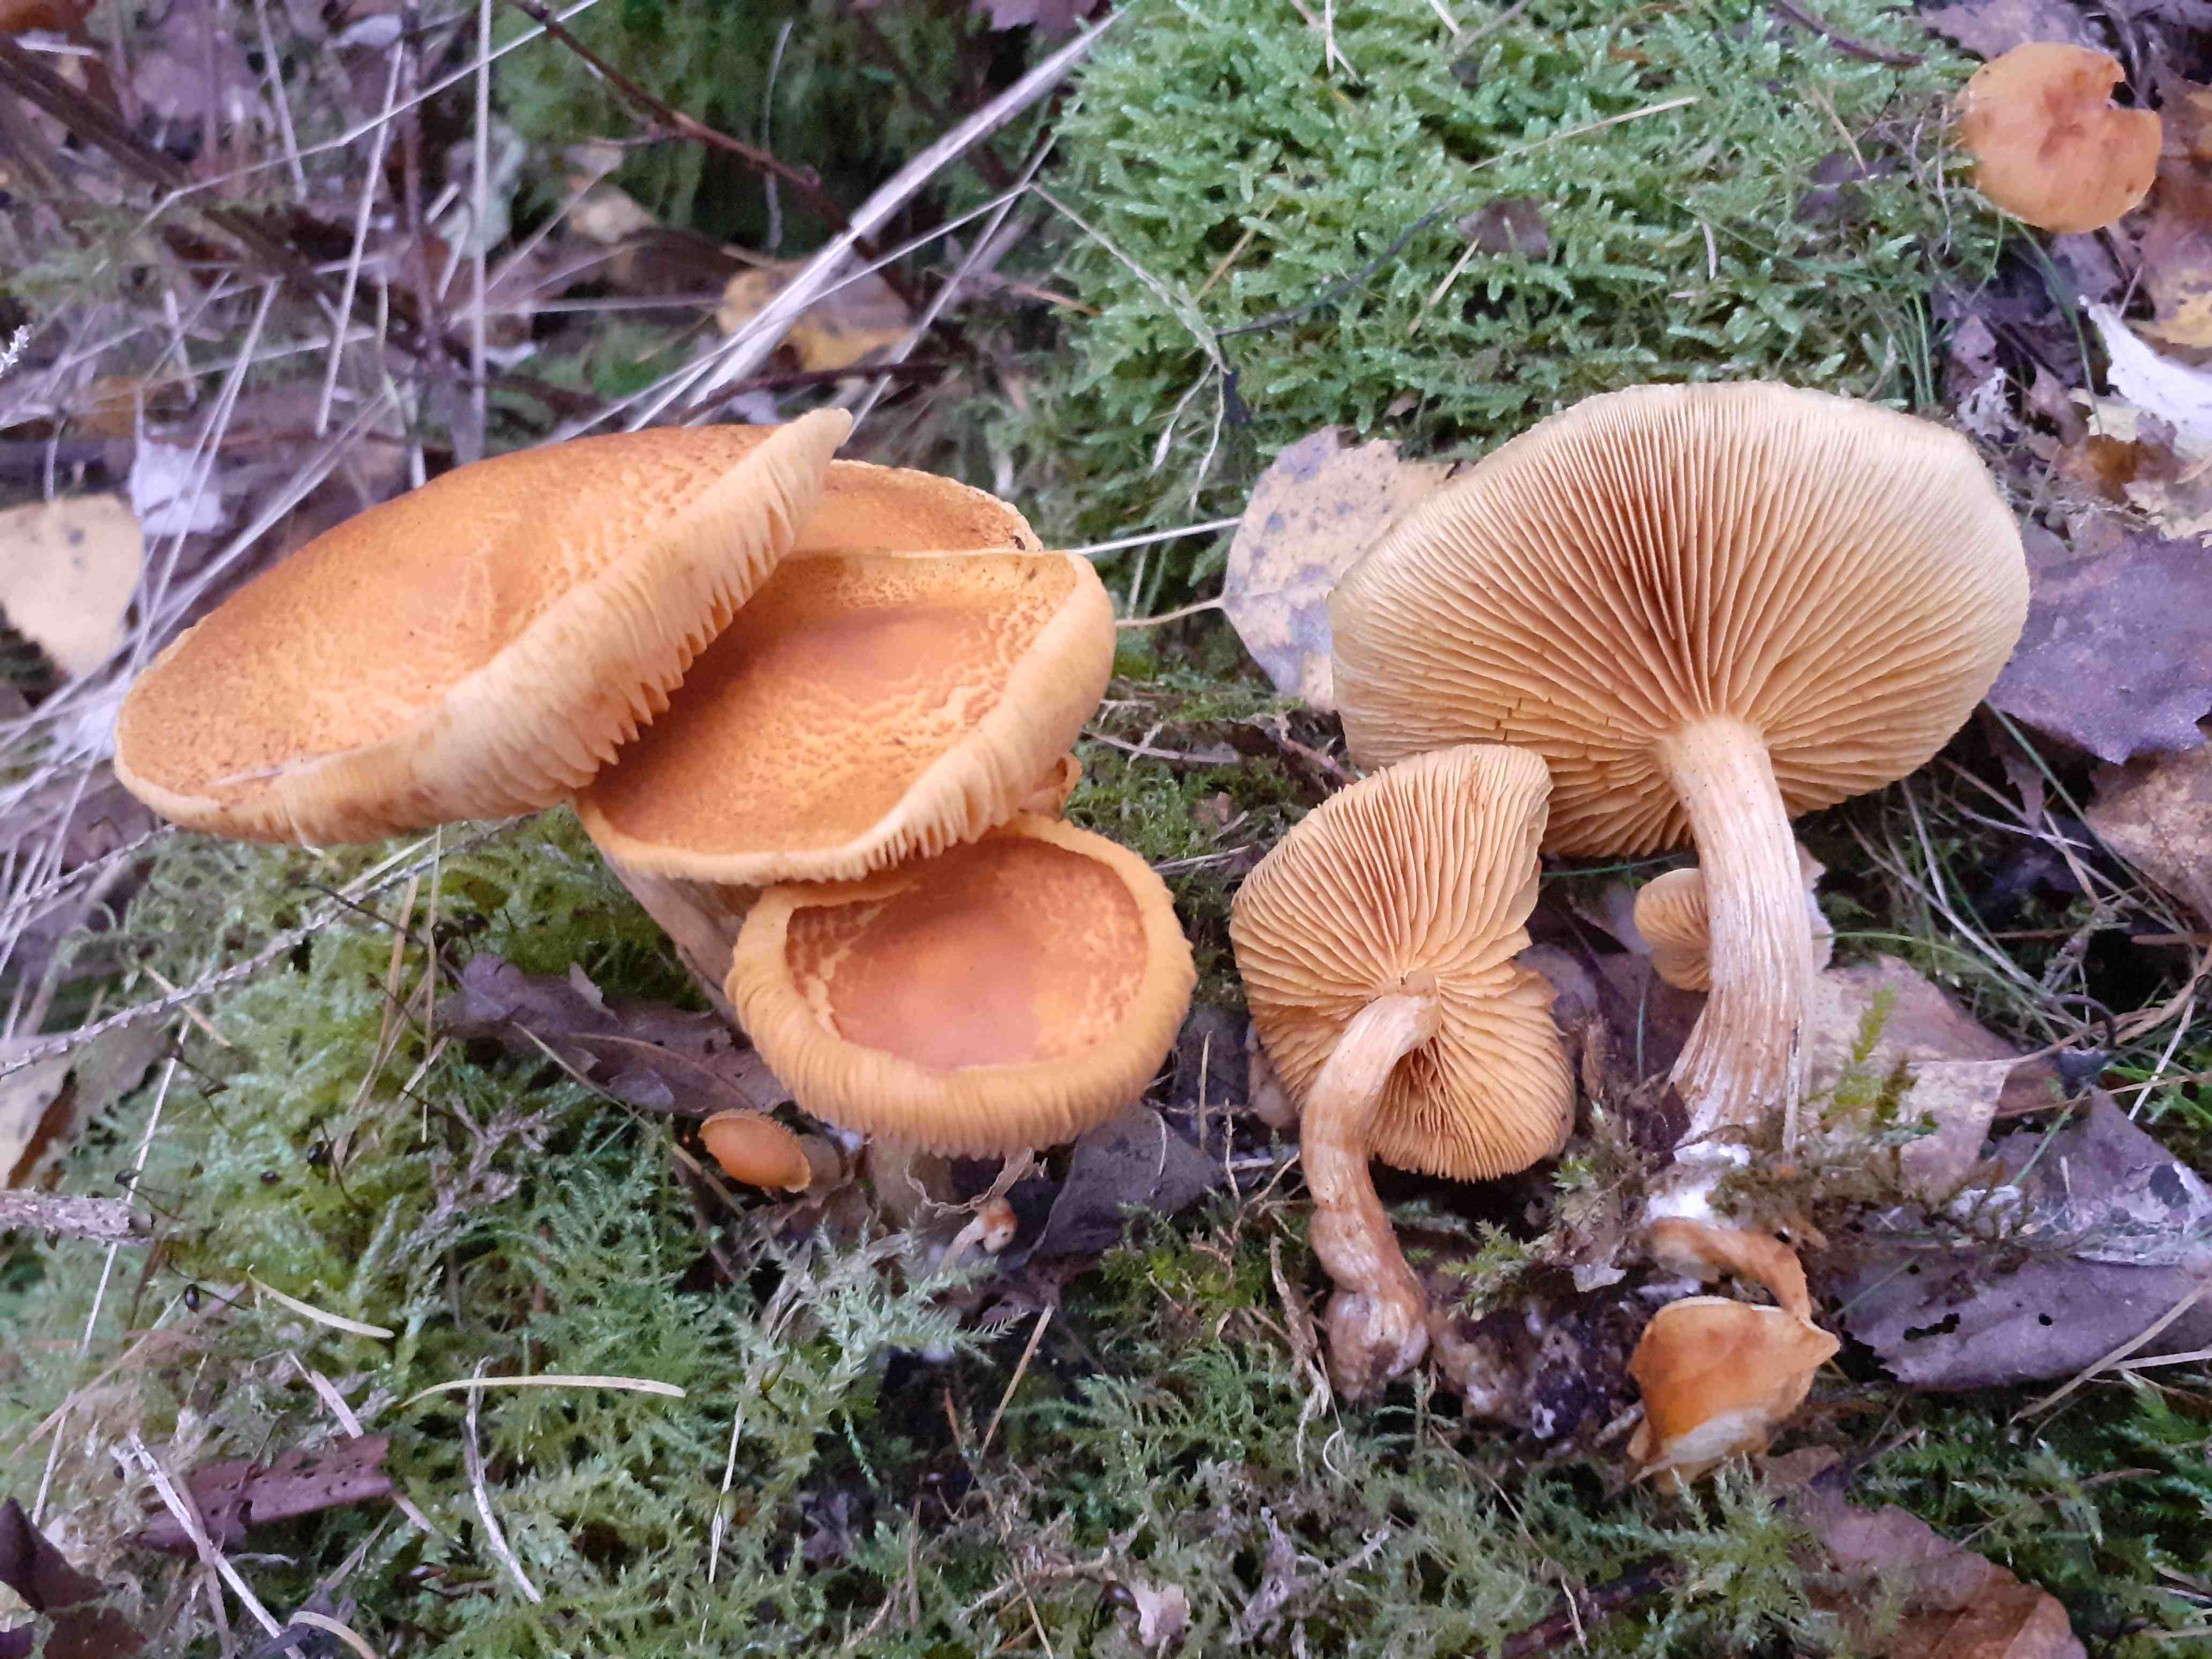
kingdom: Fungi
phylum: Basidiomycota
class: Agaricomycetes
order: Agaricales
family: Hymenogastraceae
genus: Gymnopilus
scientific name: Gymnopilus penetrans
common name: plettet flammehat
